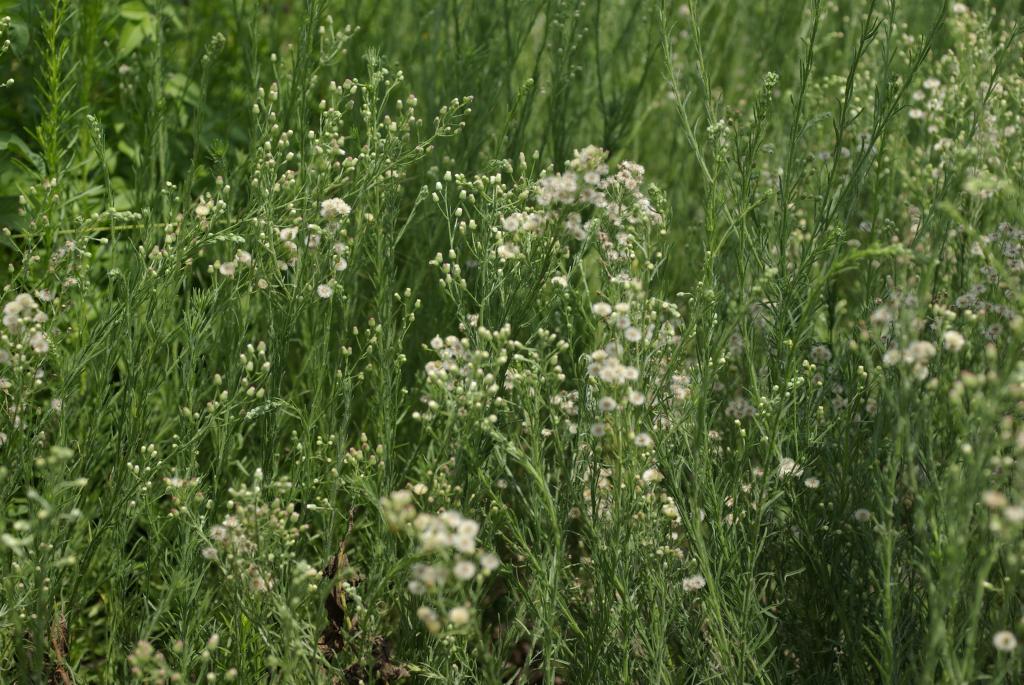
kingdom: Plantae
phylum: Tracheophyta
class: Magnoliopsida
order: Asterales
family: Asteraceae
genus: Erigeron
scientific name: Erigeron bonariensis
